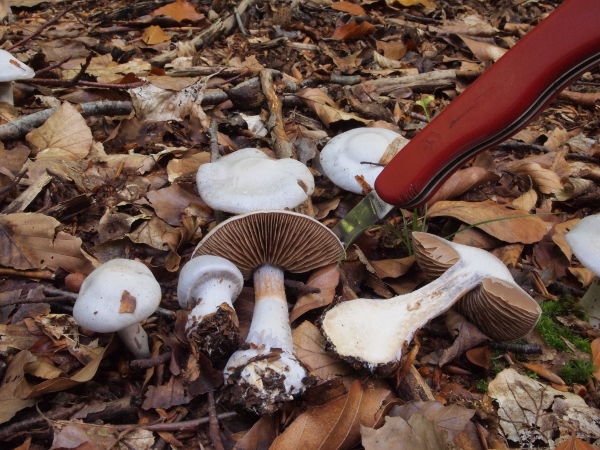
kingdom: Fungi
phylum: Basidiomycota
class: Agaricomycetes
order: Agaricales
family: Cortinariaceae
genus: Cortinarius
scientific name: Cortinarius alboviolaceus
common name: lysviolet slørhat
